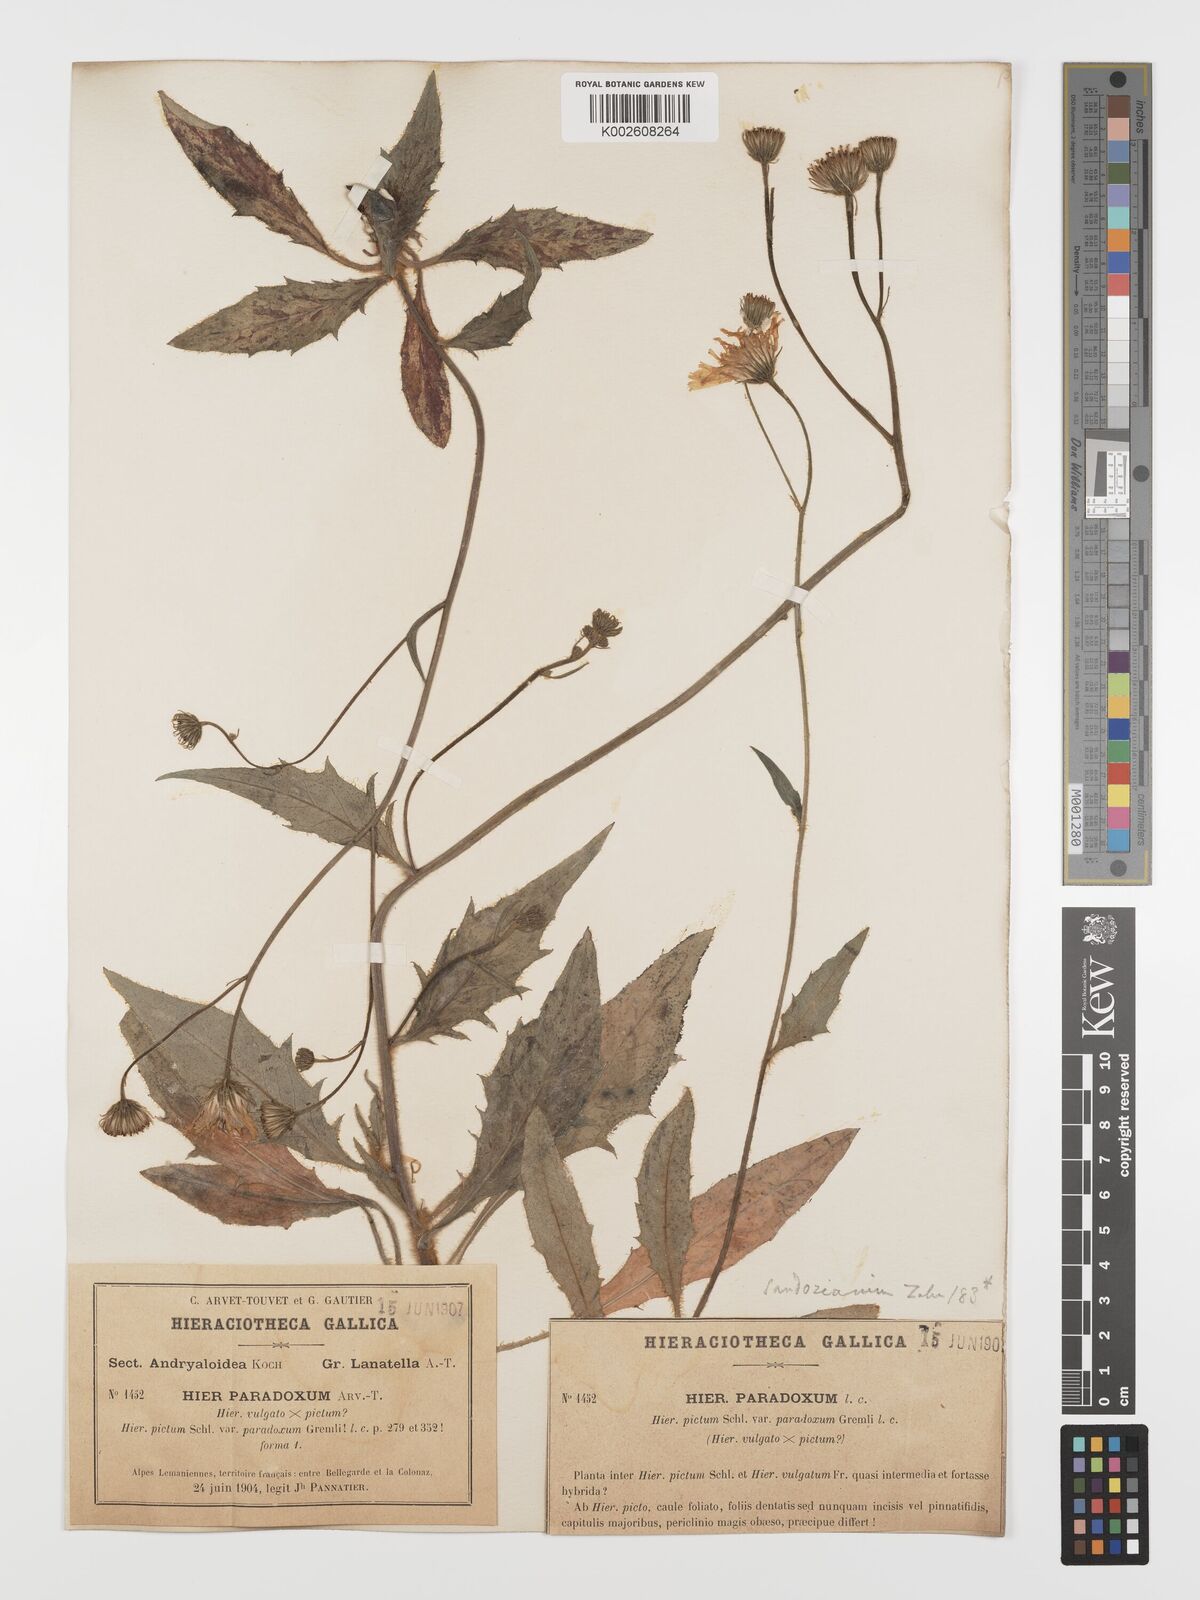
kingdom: Plantae
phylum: Tracheophyta
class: Magnoliopsida
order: Asterales
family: Asteraceae
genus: Hieracium
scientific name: Hieracium sandozianum
